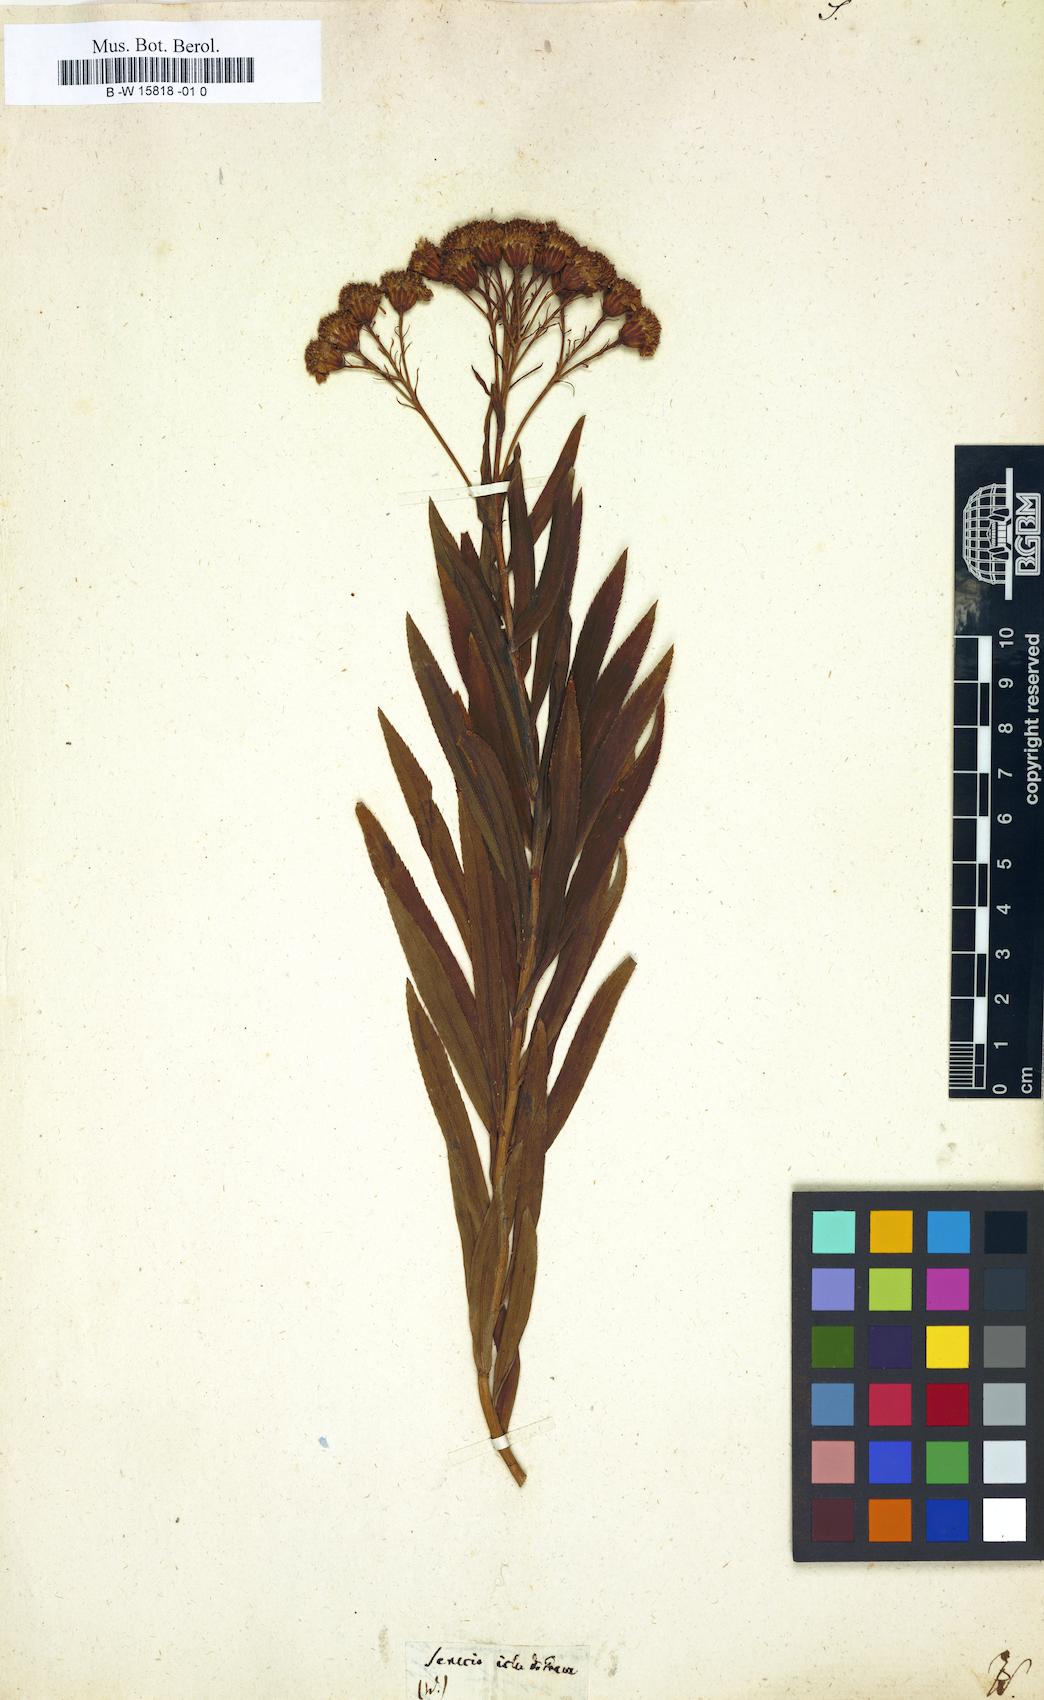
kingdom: Plantae
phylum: Tracheophyta
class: Magnoliopsida
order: Asterales
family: Asteraceae
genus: Senecio
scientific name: Senecio
